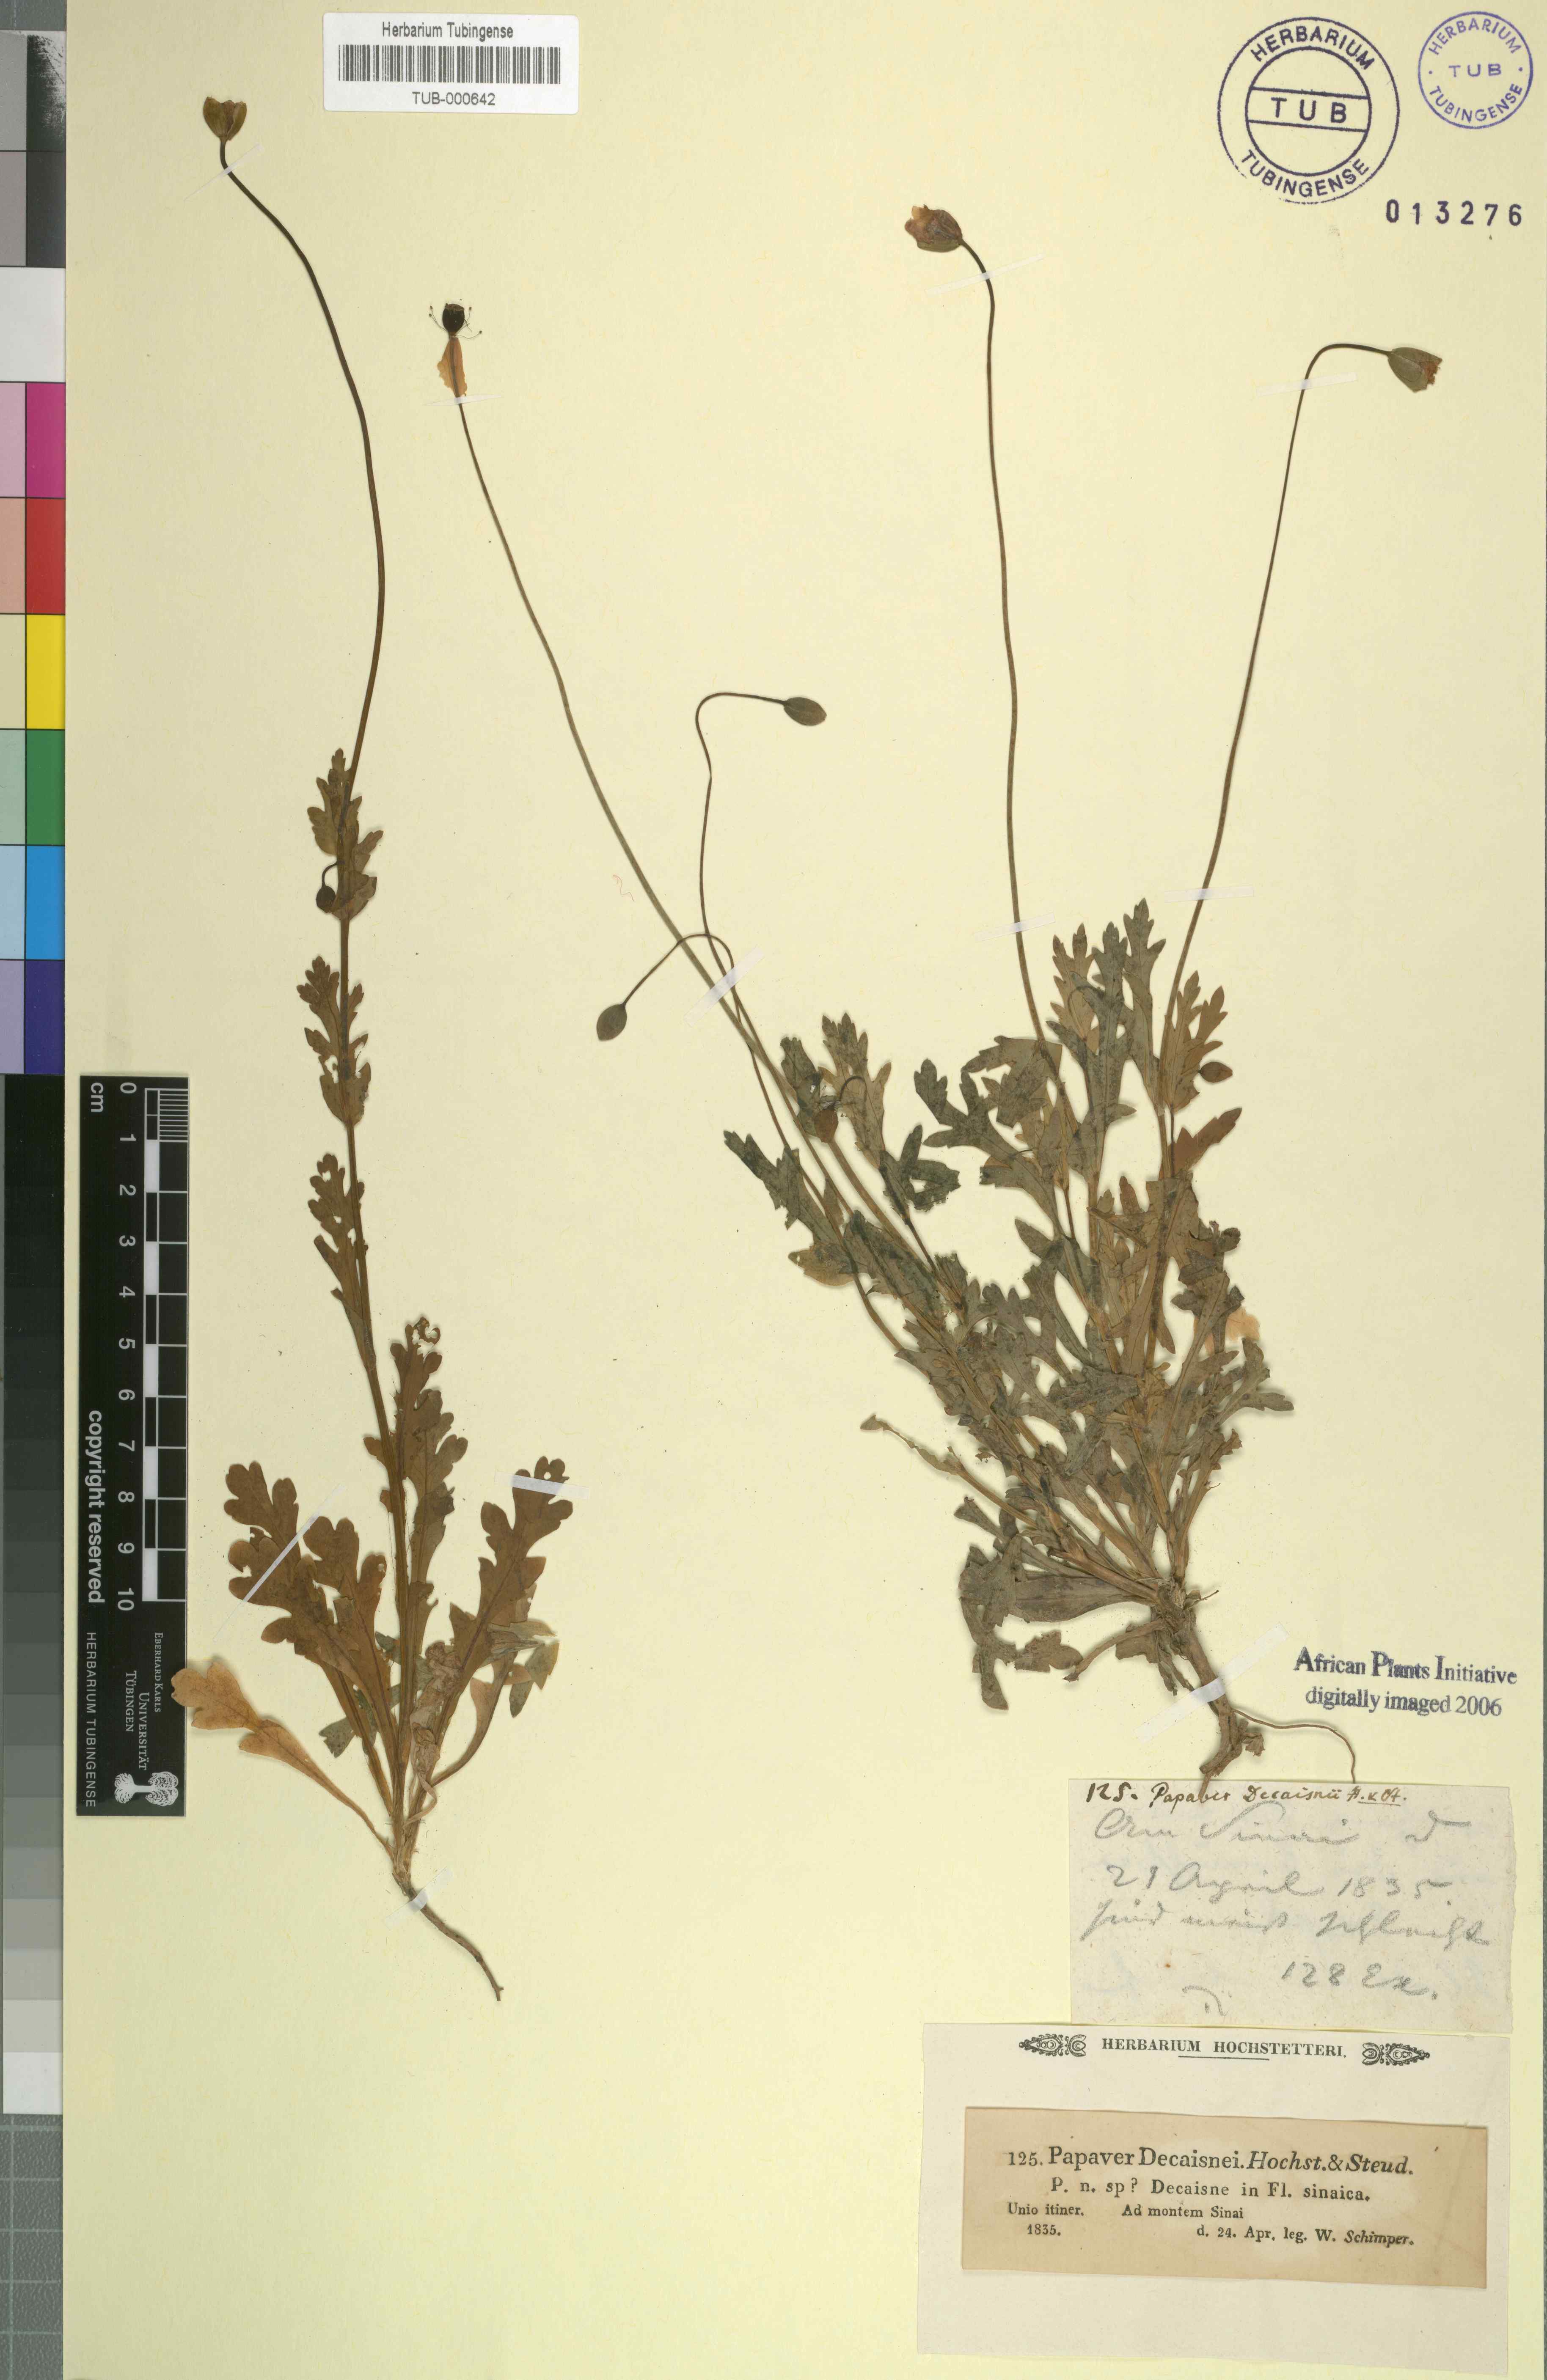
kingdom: Plantae
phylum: Tracheophyta
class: Magnoliopsida
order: Ranunculales
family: Papaveraceae
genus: Papaver
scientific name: Papaver decaisnei
